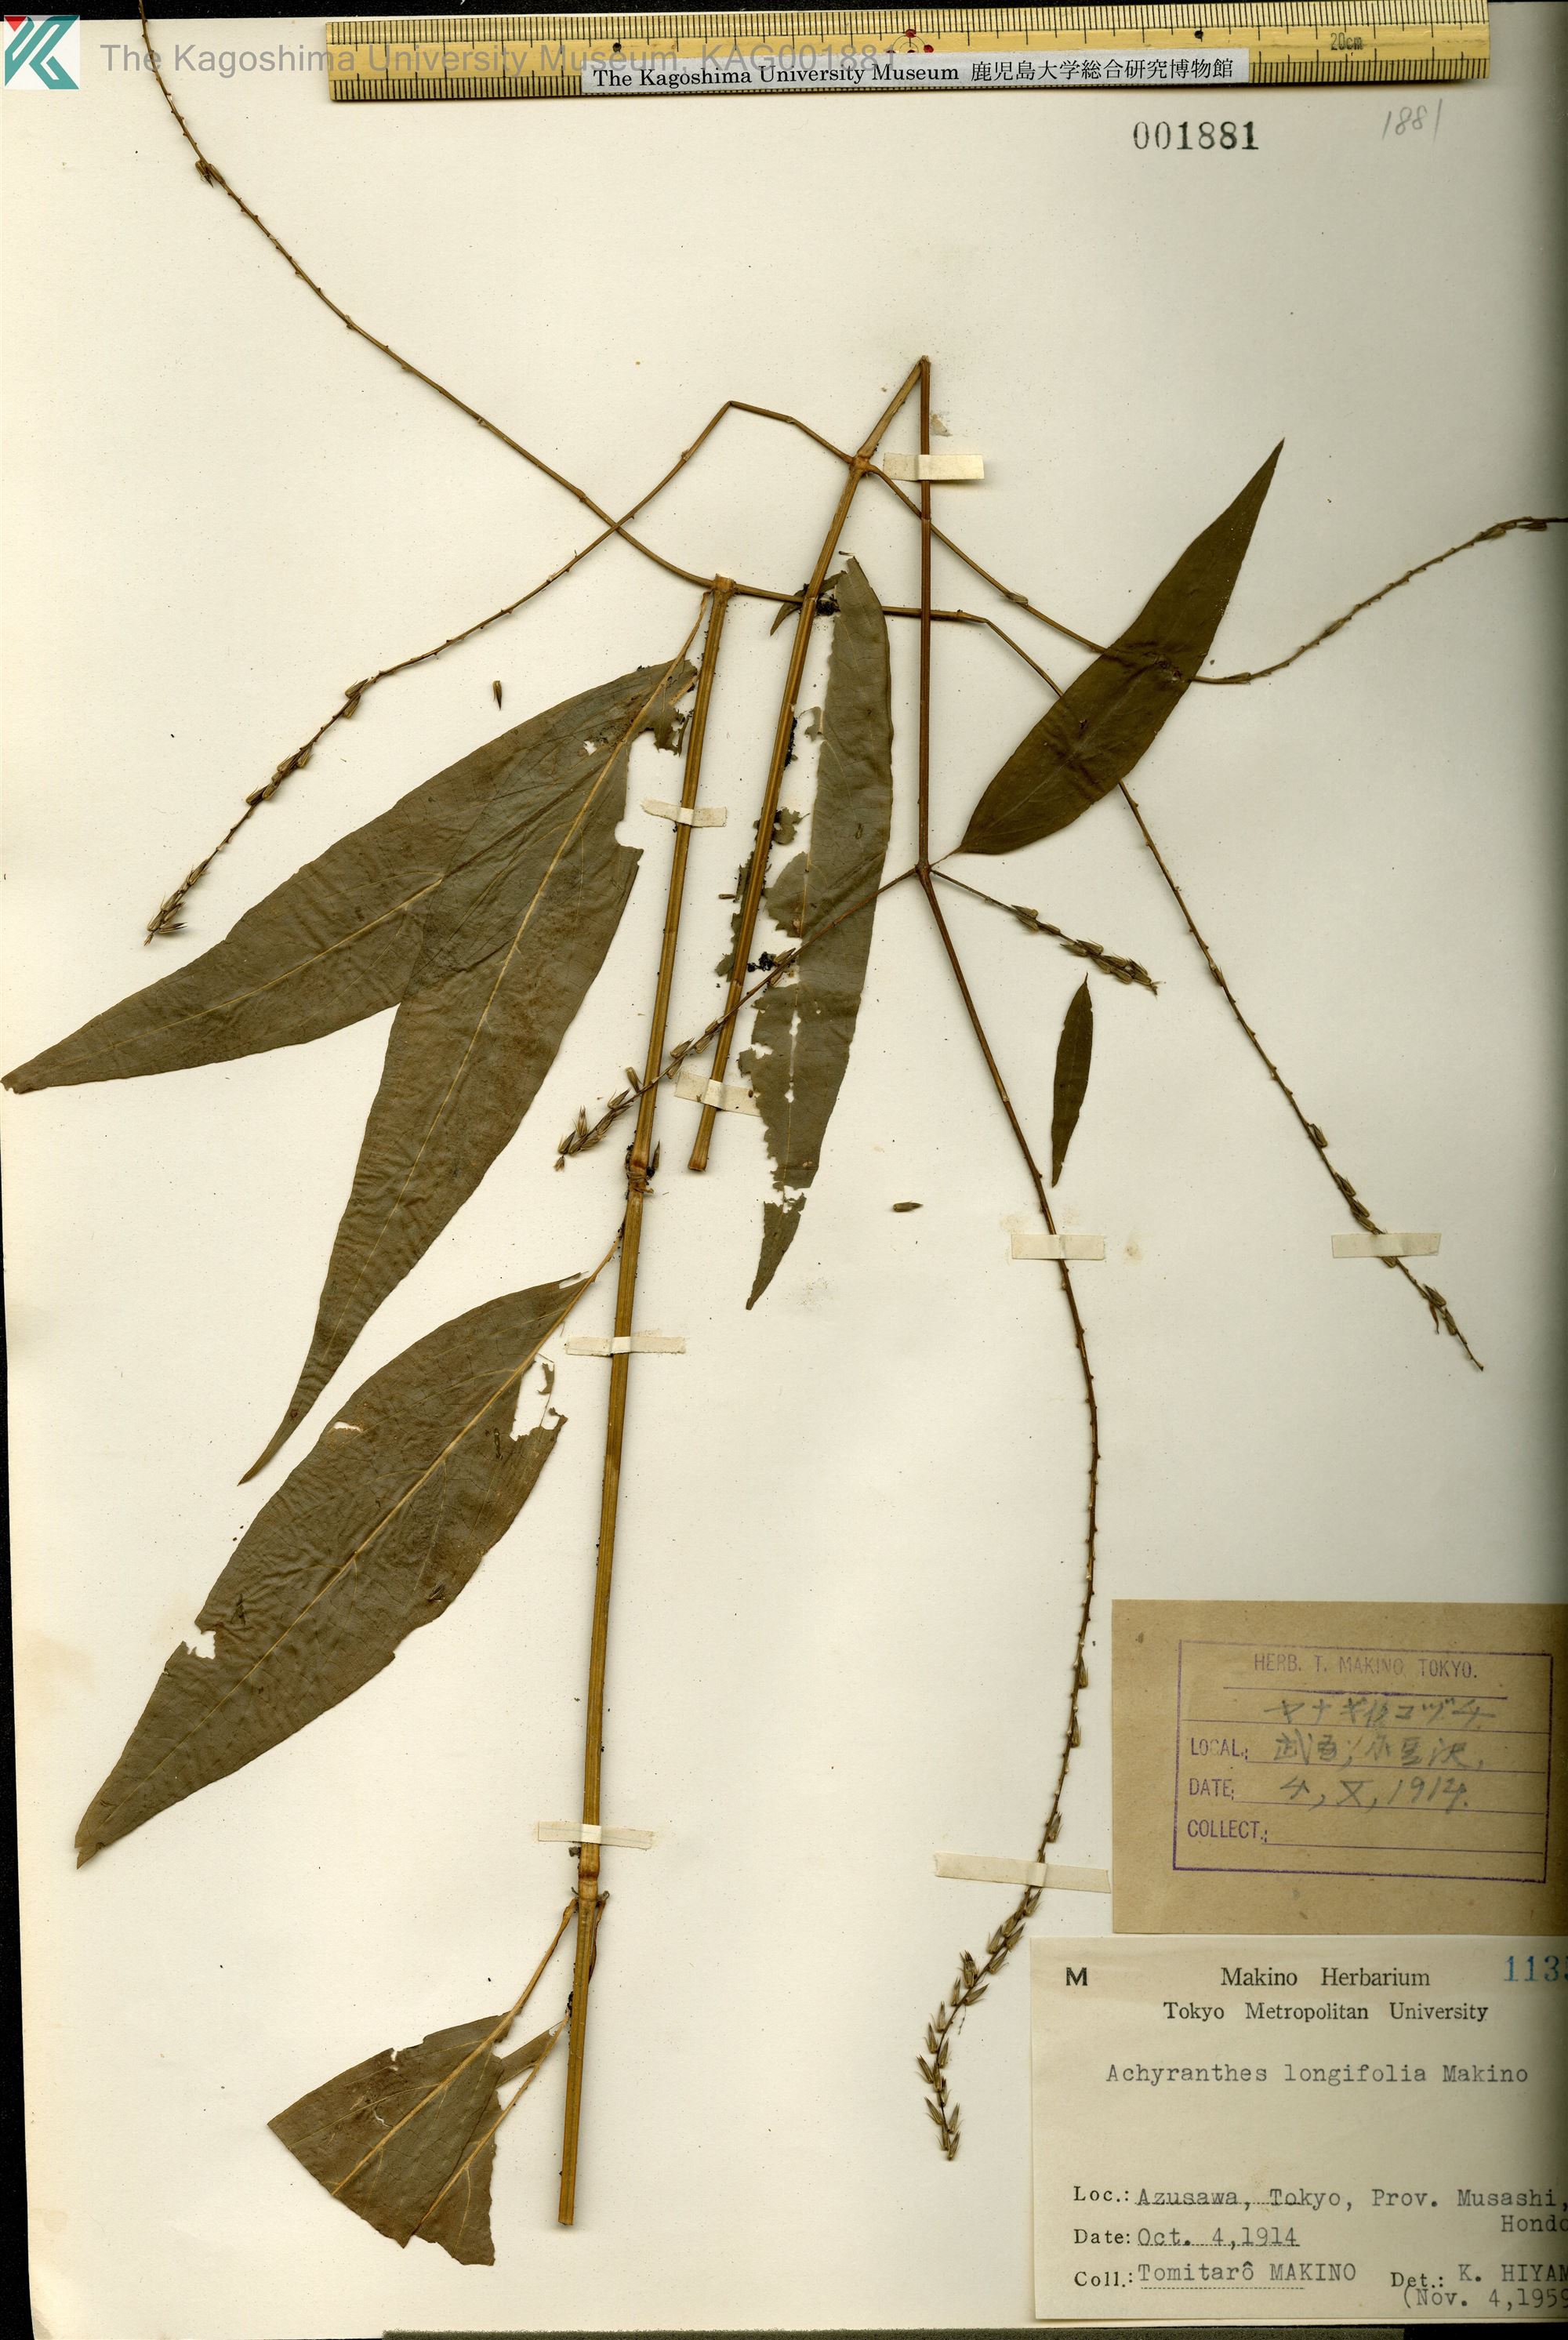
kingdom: Plantae
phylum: Tracheophyta
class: Magnoliopsida
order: Caryophyllales
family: Amaranthaceae
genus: Achyranthes
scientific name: Achyranthes bidentata
